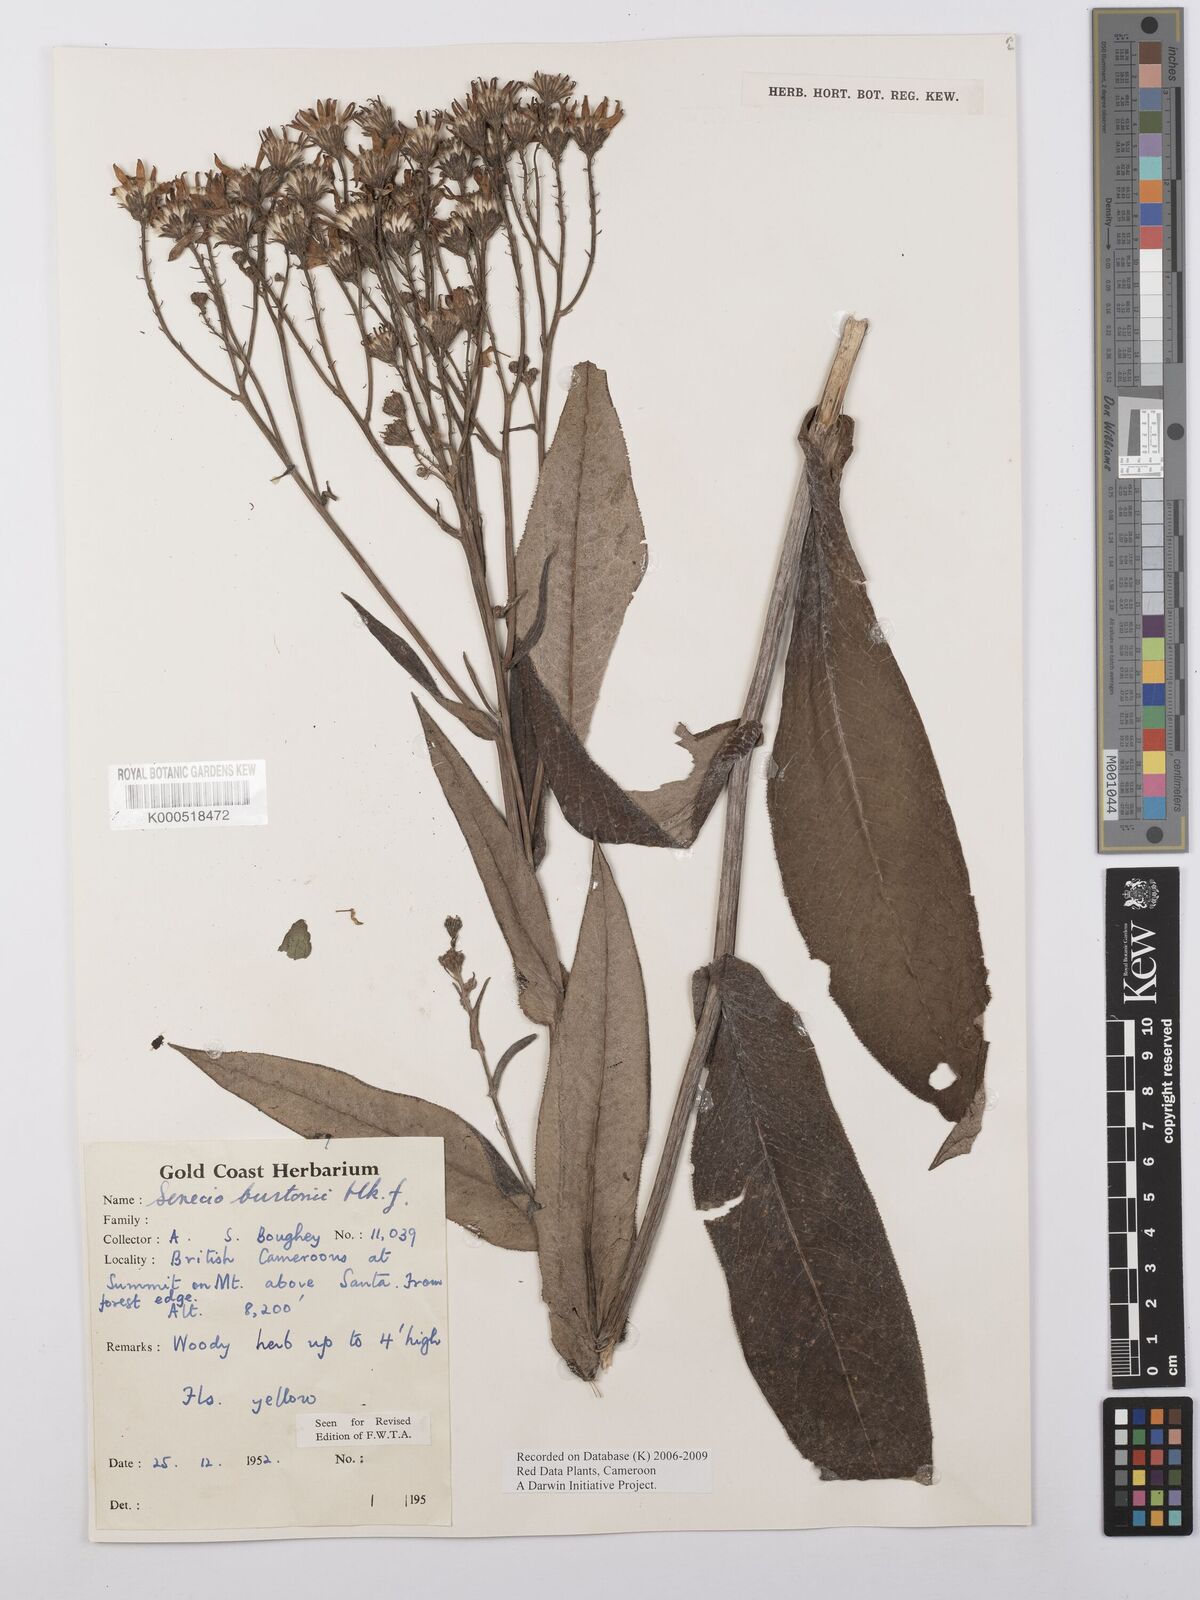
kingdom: Plantae
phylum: Tracheophyta
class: Magnoliopsida
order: Asterales
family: Asteraceae
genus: Senecio
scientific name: Senecio burtonii
